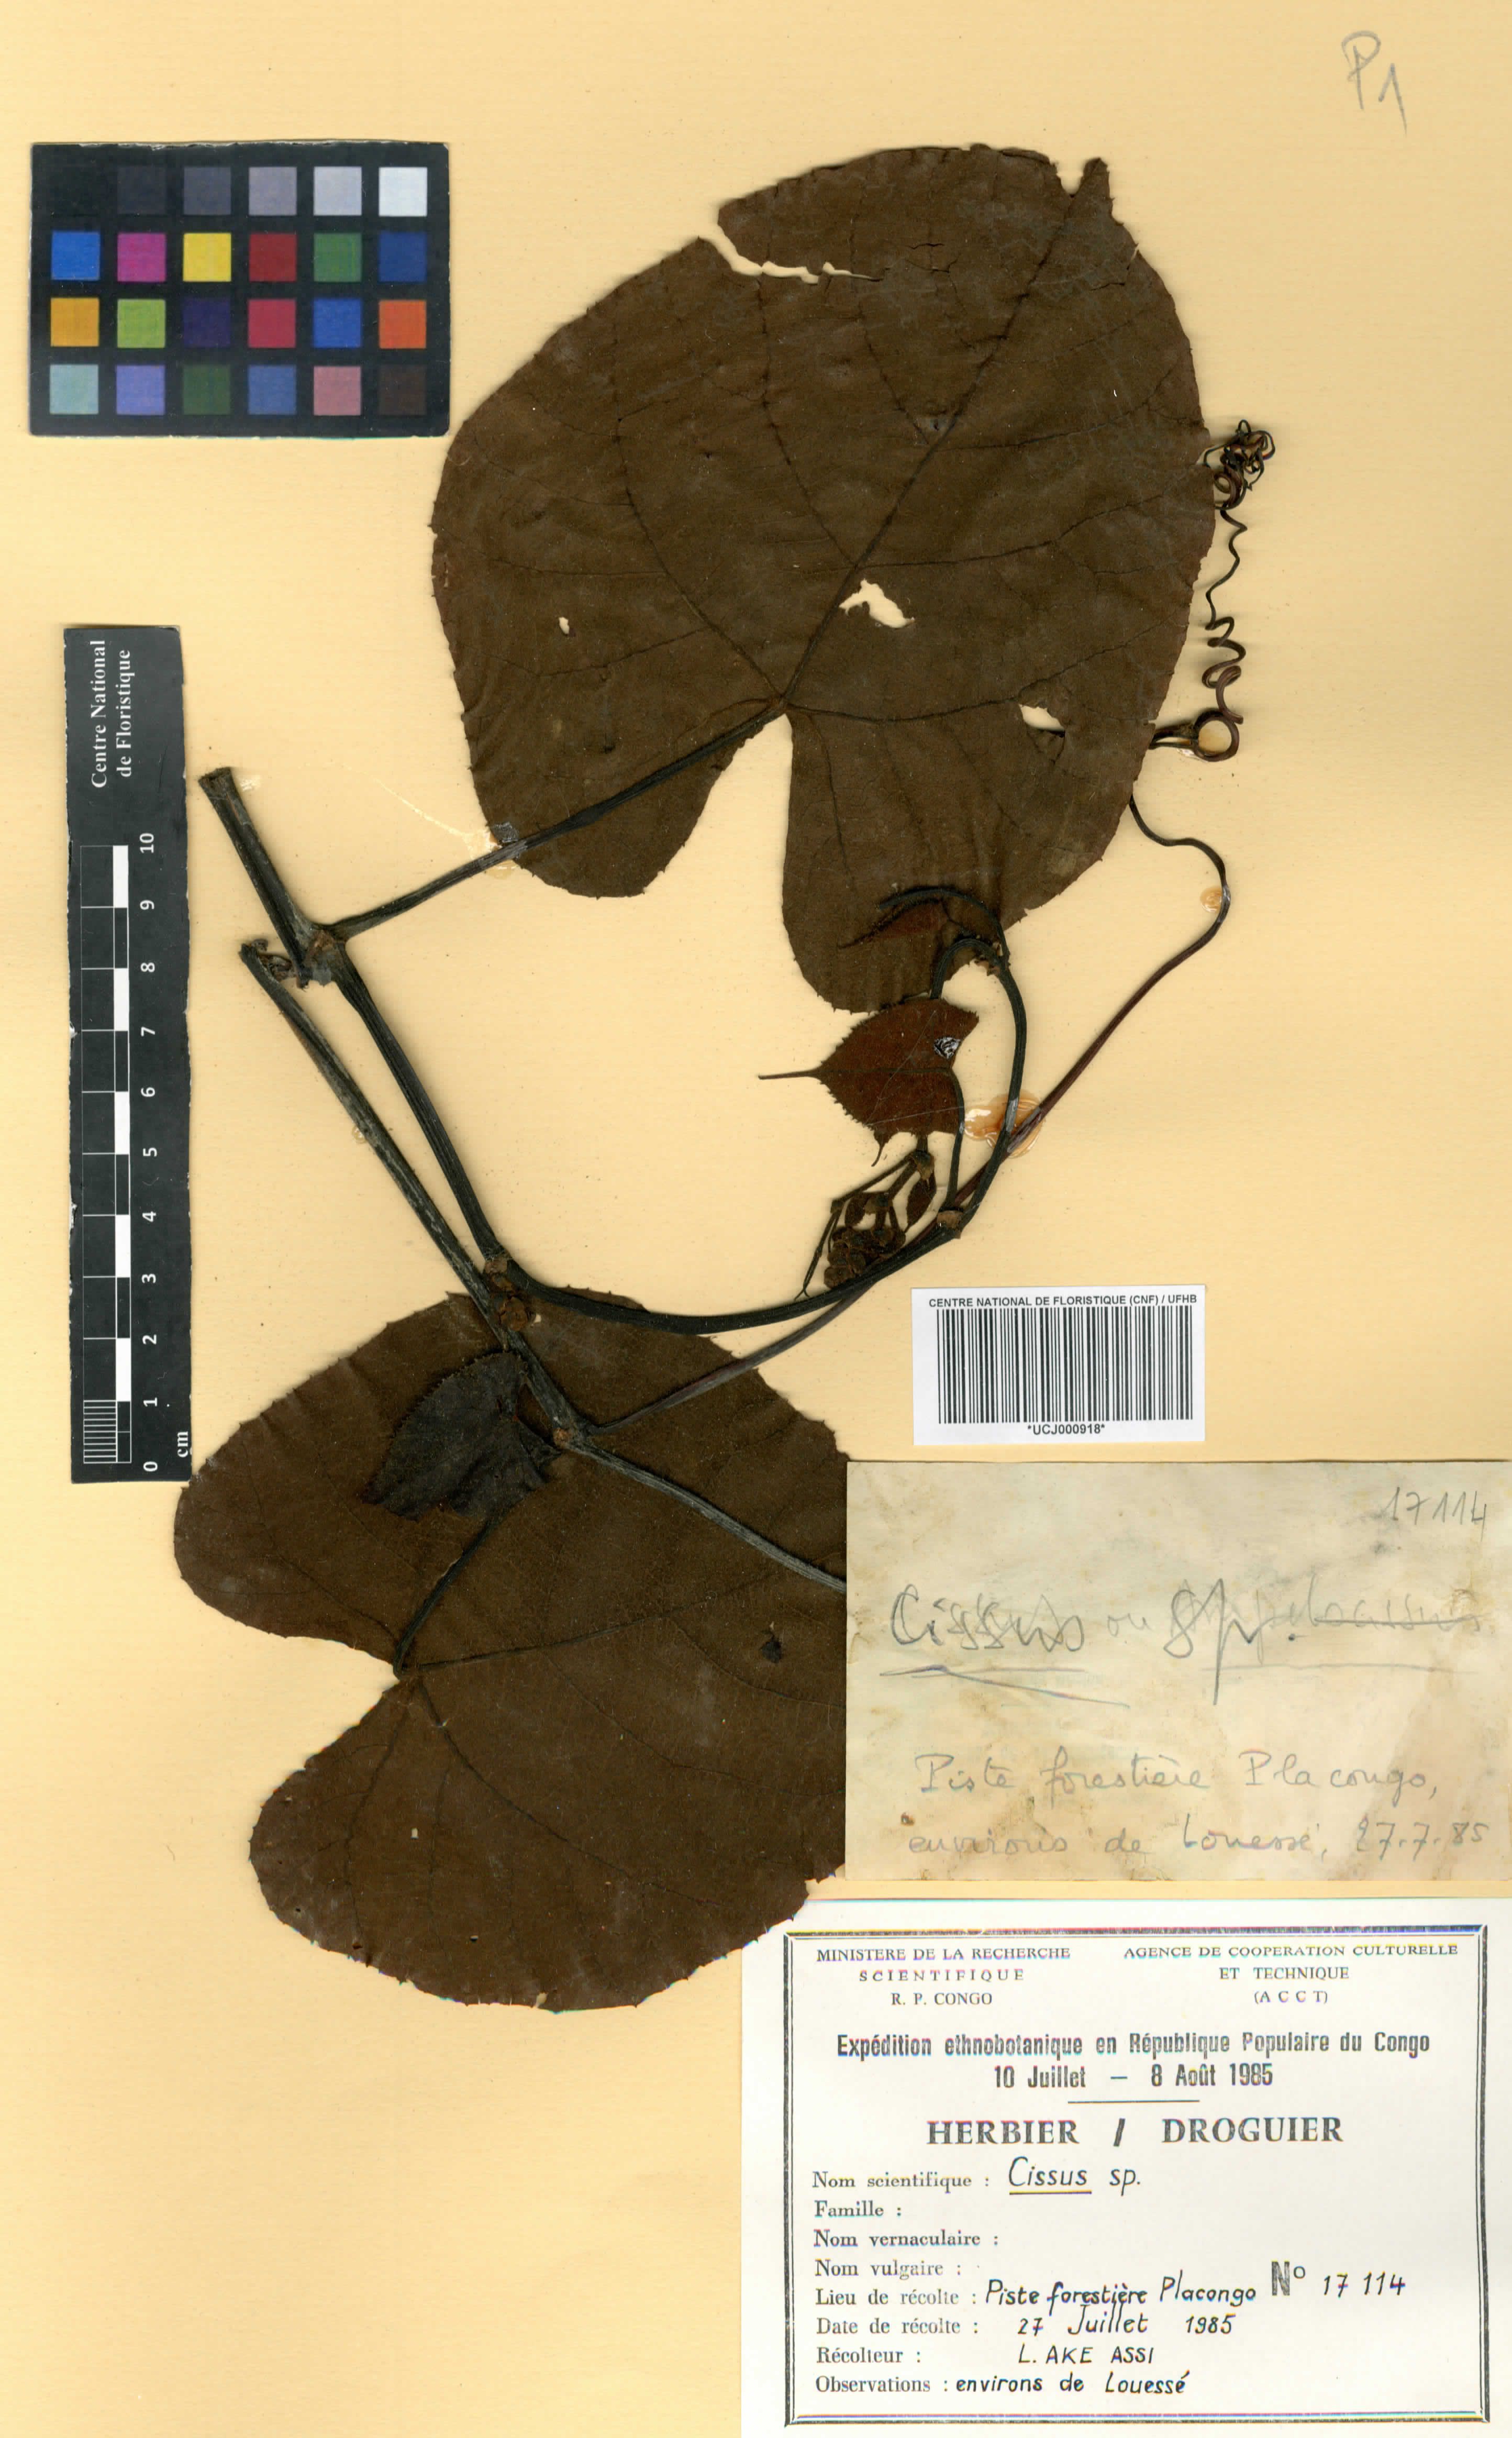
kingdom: Plantae
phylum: Tracheophyta
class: Magnoliopsida
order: Vitales
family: Vitaceae
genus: Cissus
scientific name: Cissus
